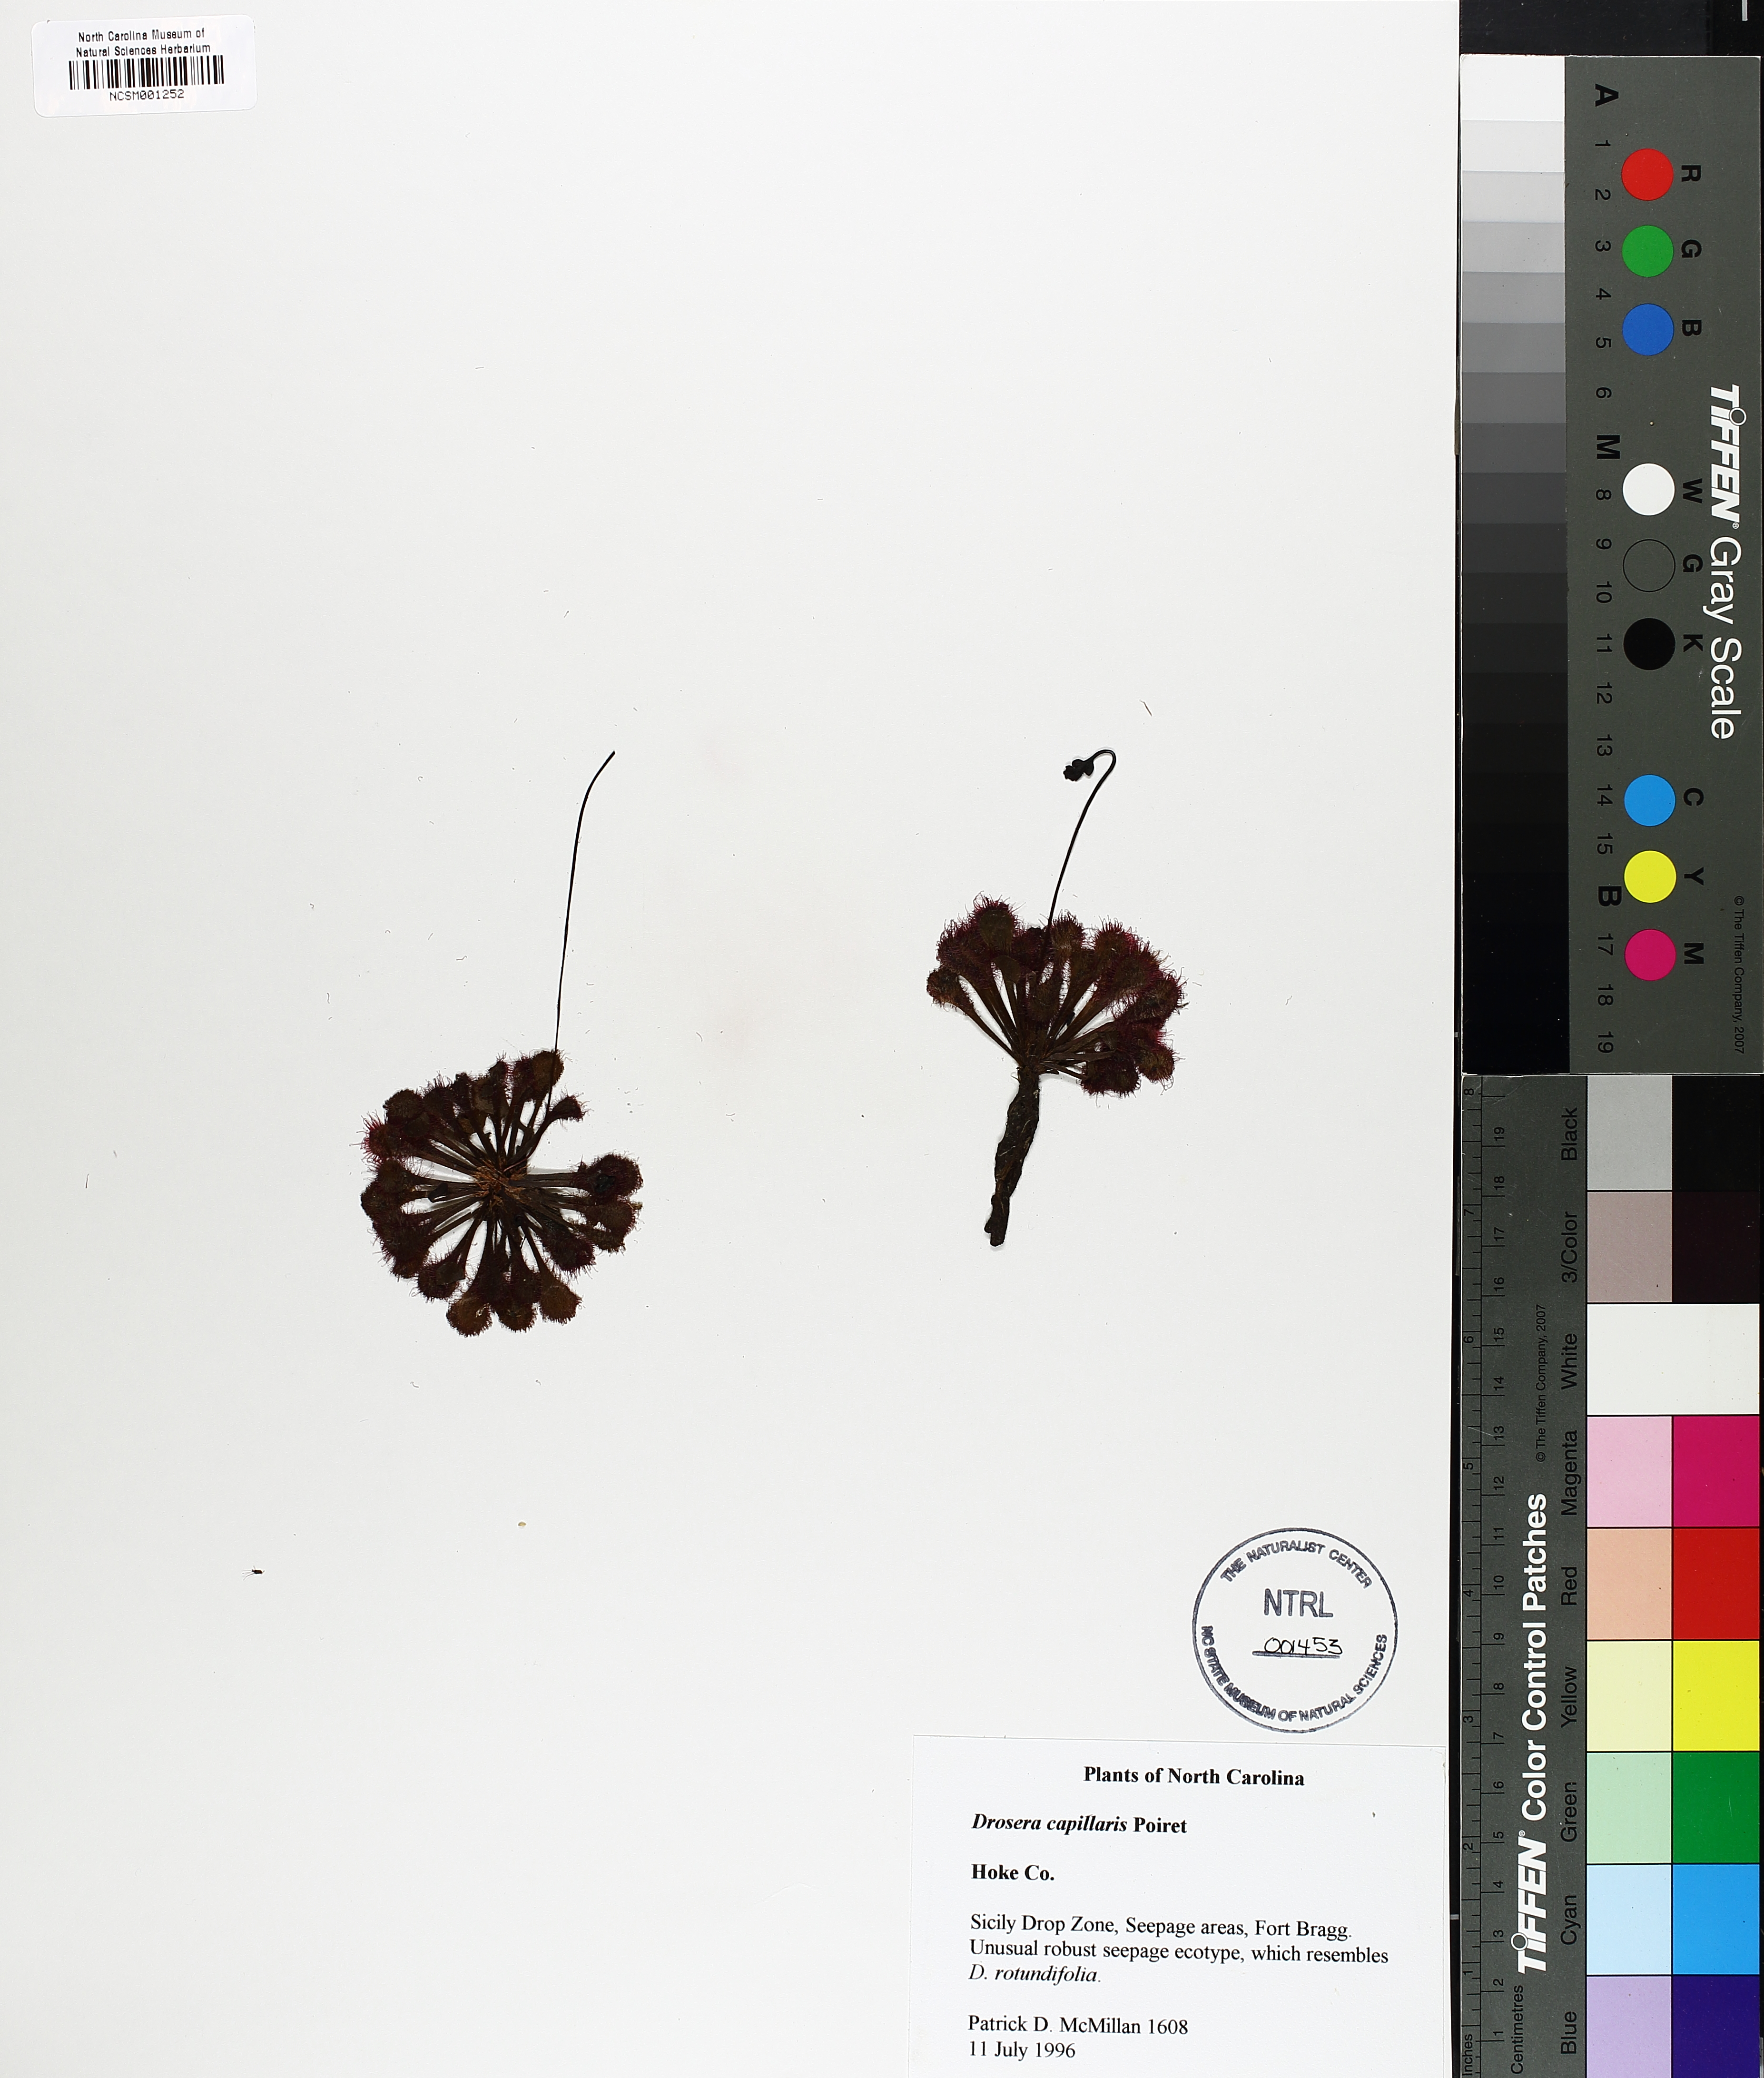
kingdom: Plantae
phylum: Tracheophyta
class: Magnoliopsida
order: Caryophyllales
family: Droseraceae
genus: Drosera
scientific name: Drosera capillaris
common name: Pink sundew
